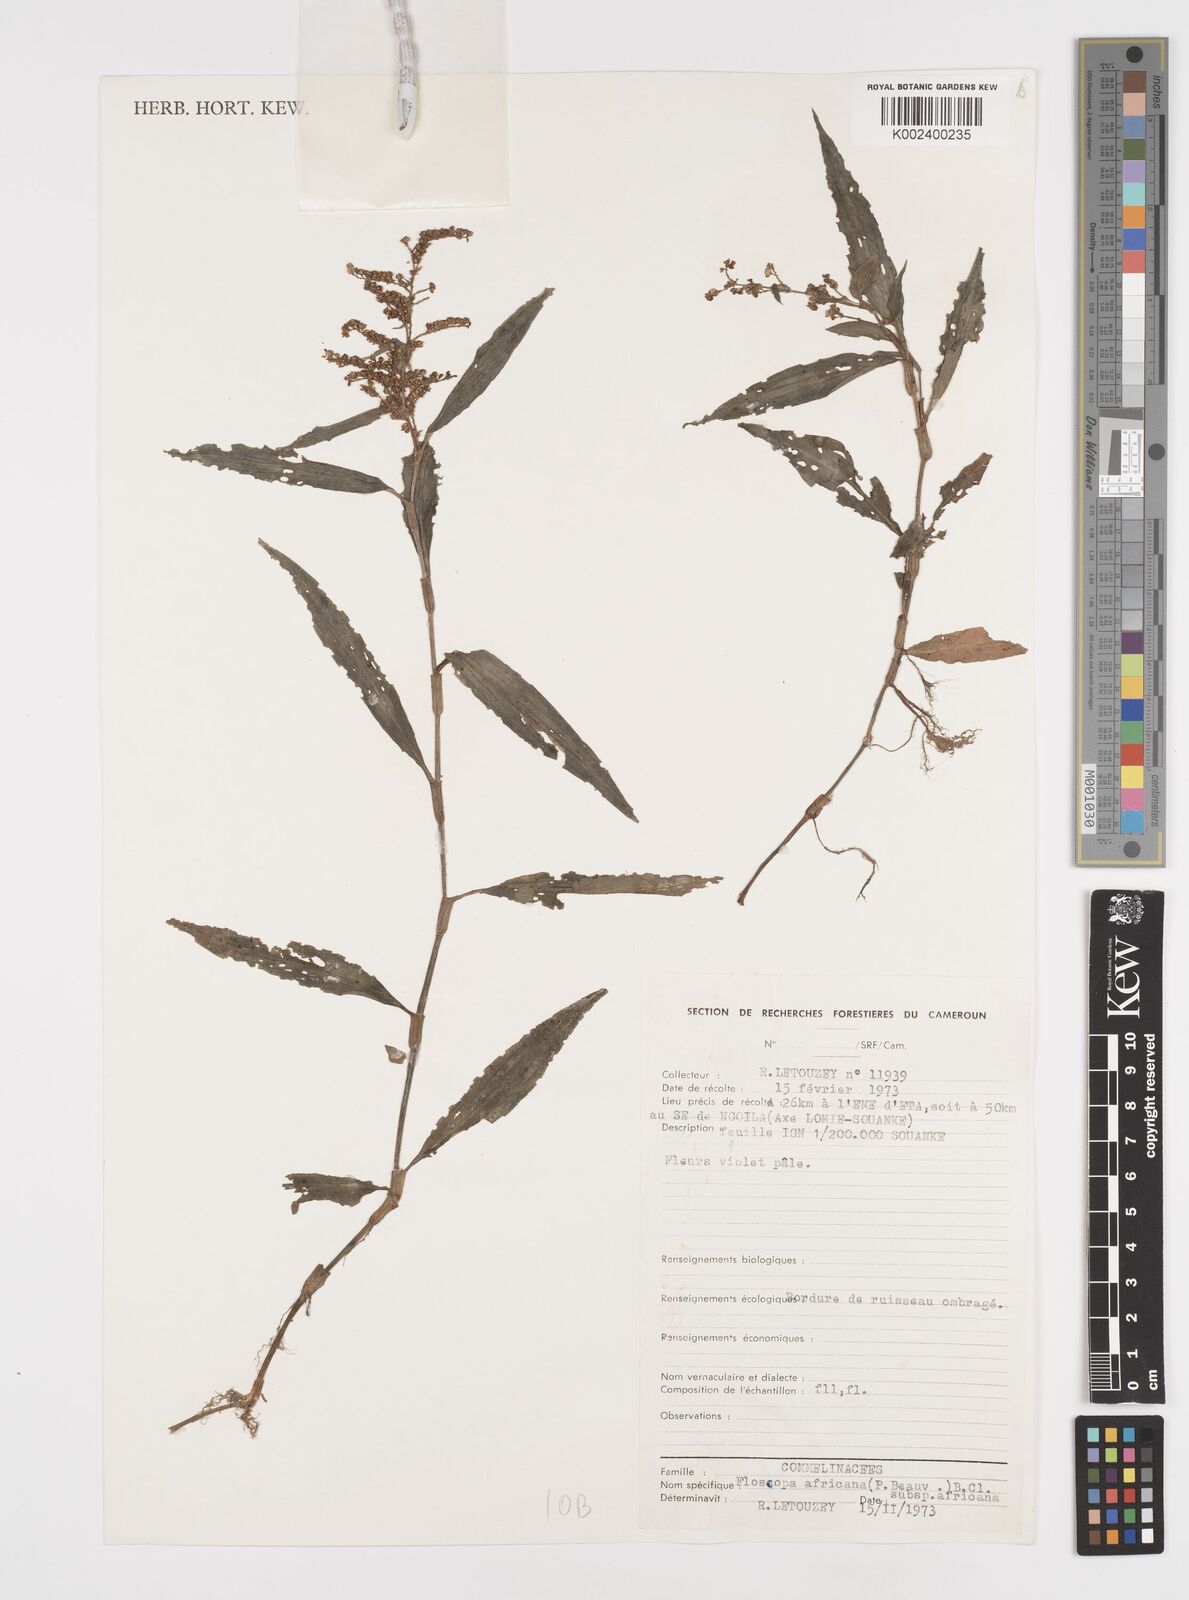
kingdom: Plantae
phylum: Tracheophyta
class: Liliopsida
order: Commelinales
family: Commelinaceae
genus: Floscopa
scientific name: Floscopa africana
